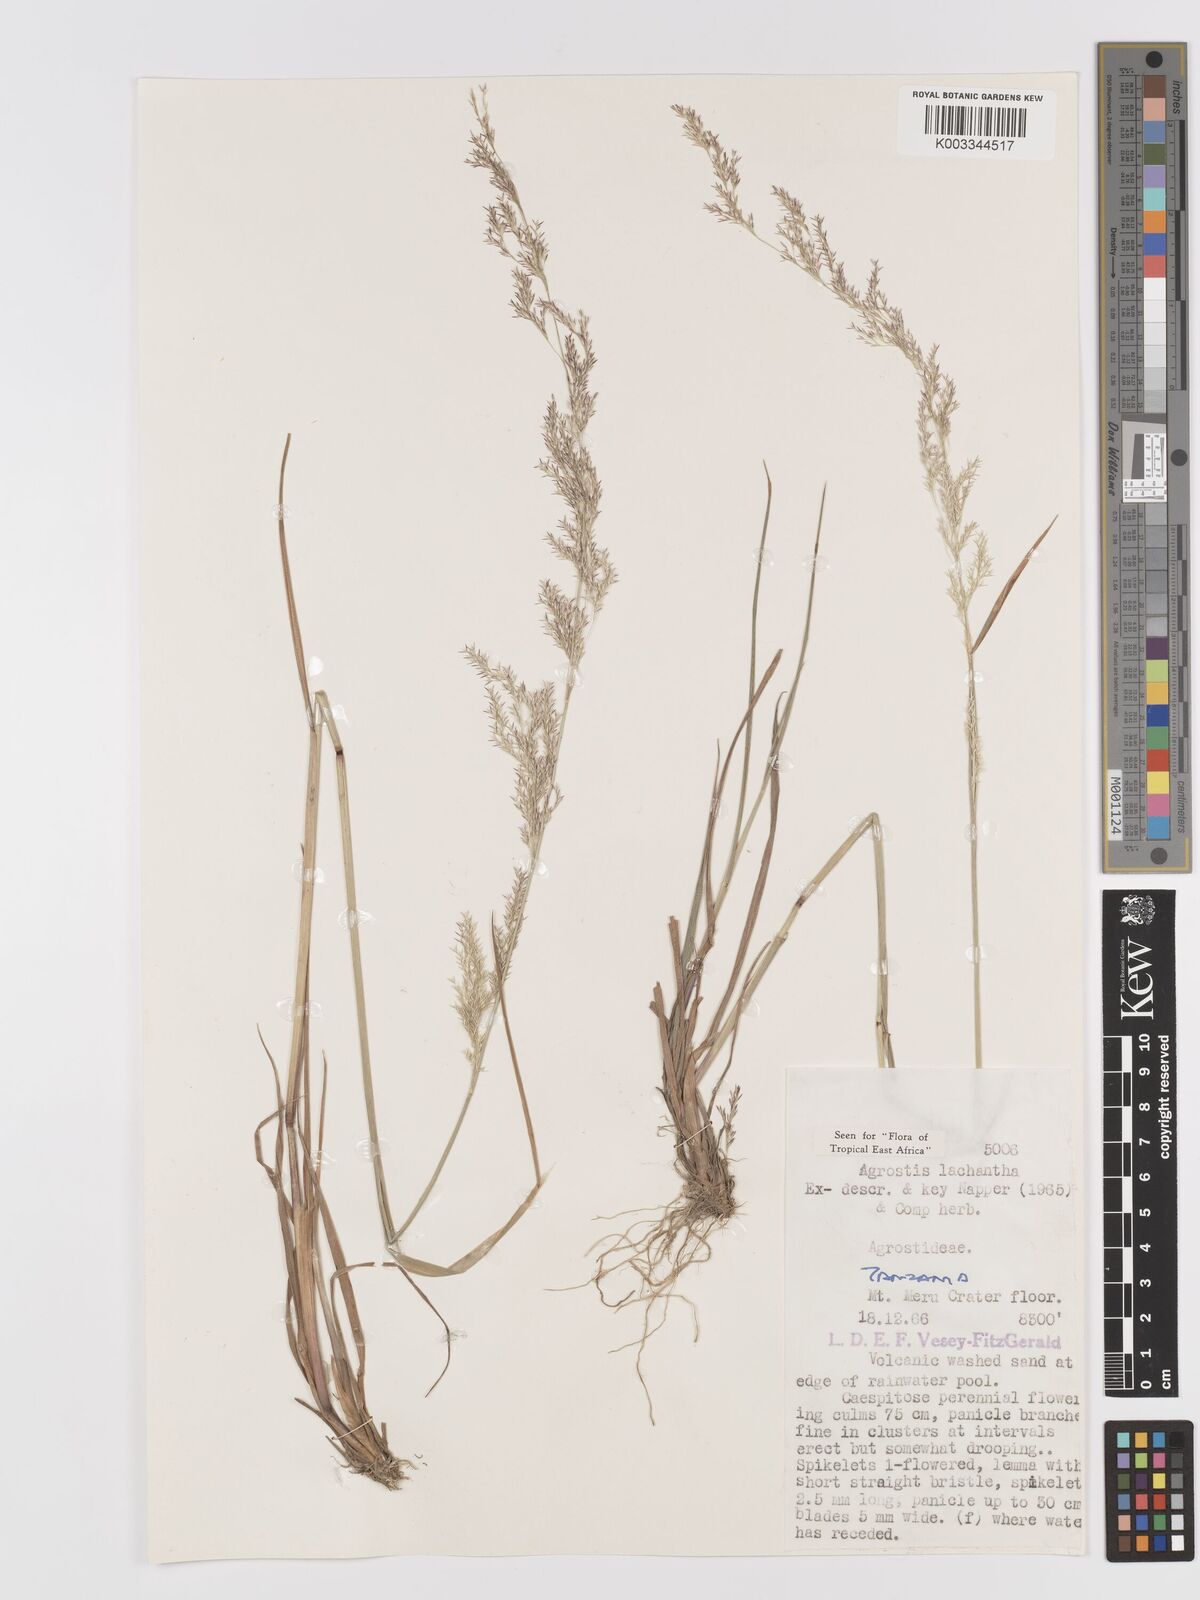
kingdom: Plantae
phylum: Tracheophyta
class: Liliopsida
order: Poales
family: Poaceae
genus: Lachnagrostis
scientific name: Lachnagrostis lachnantha
